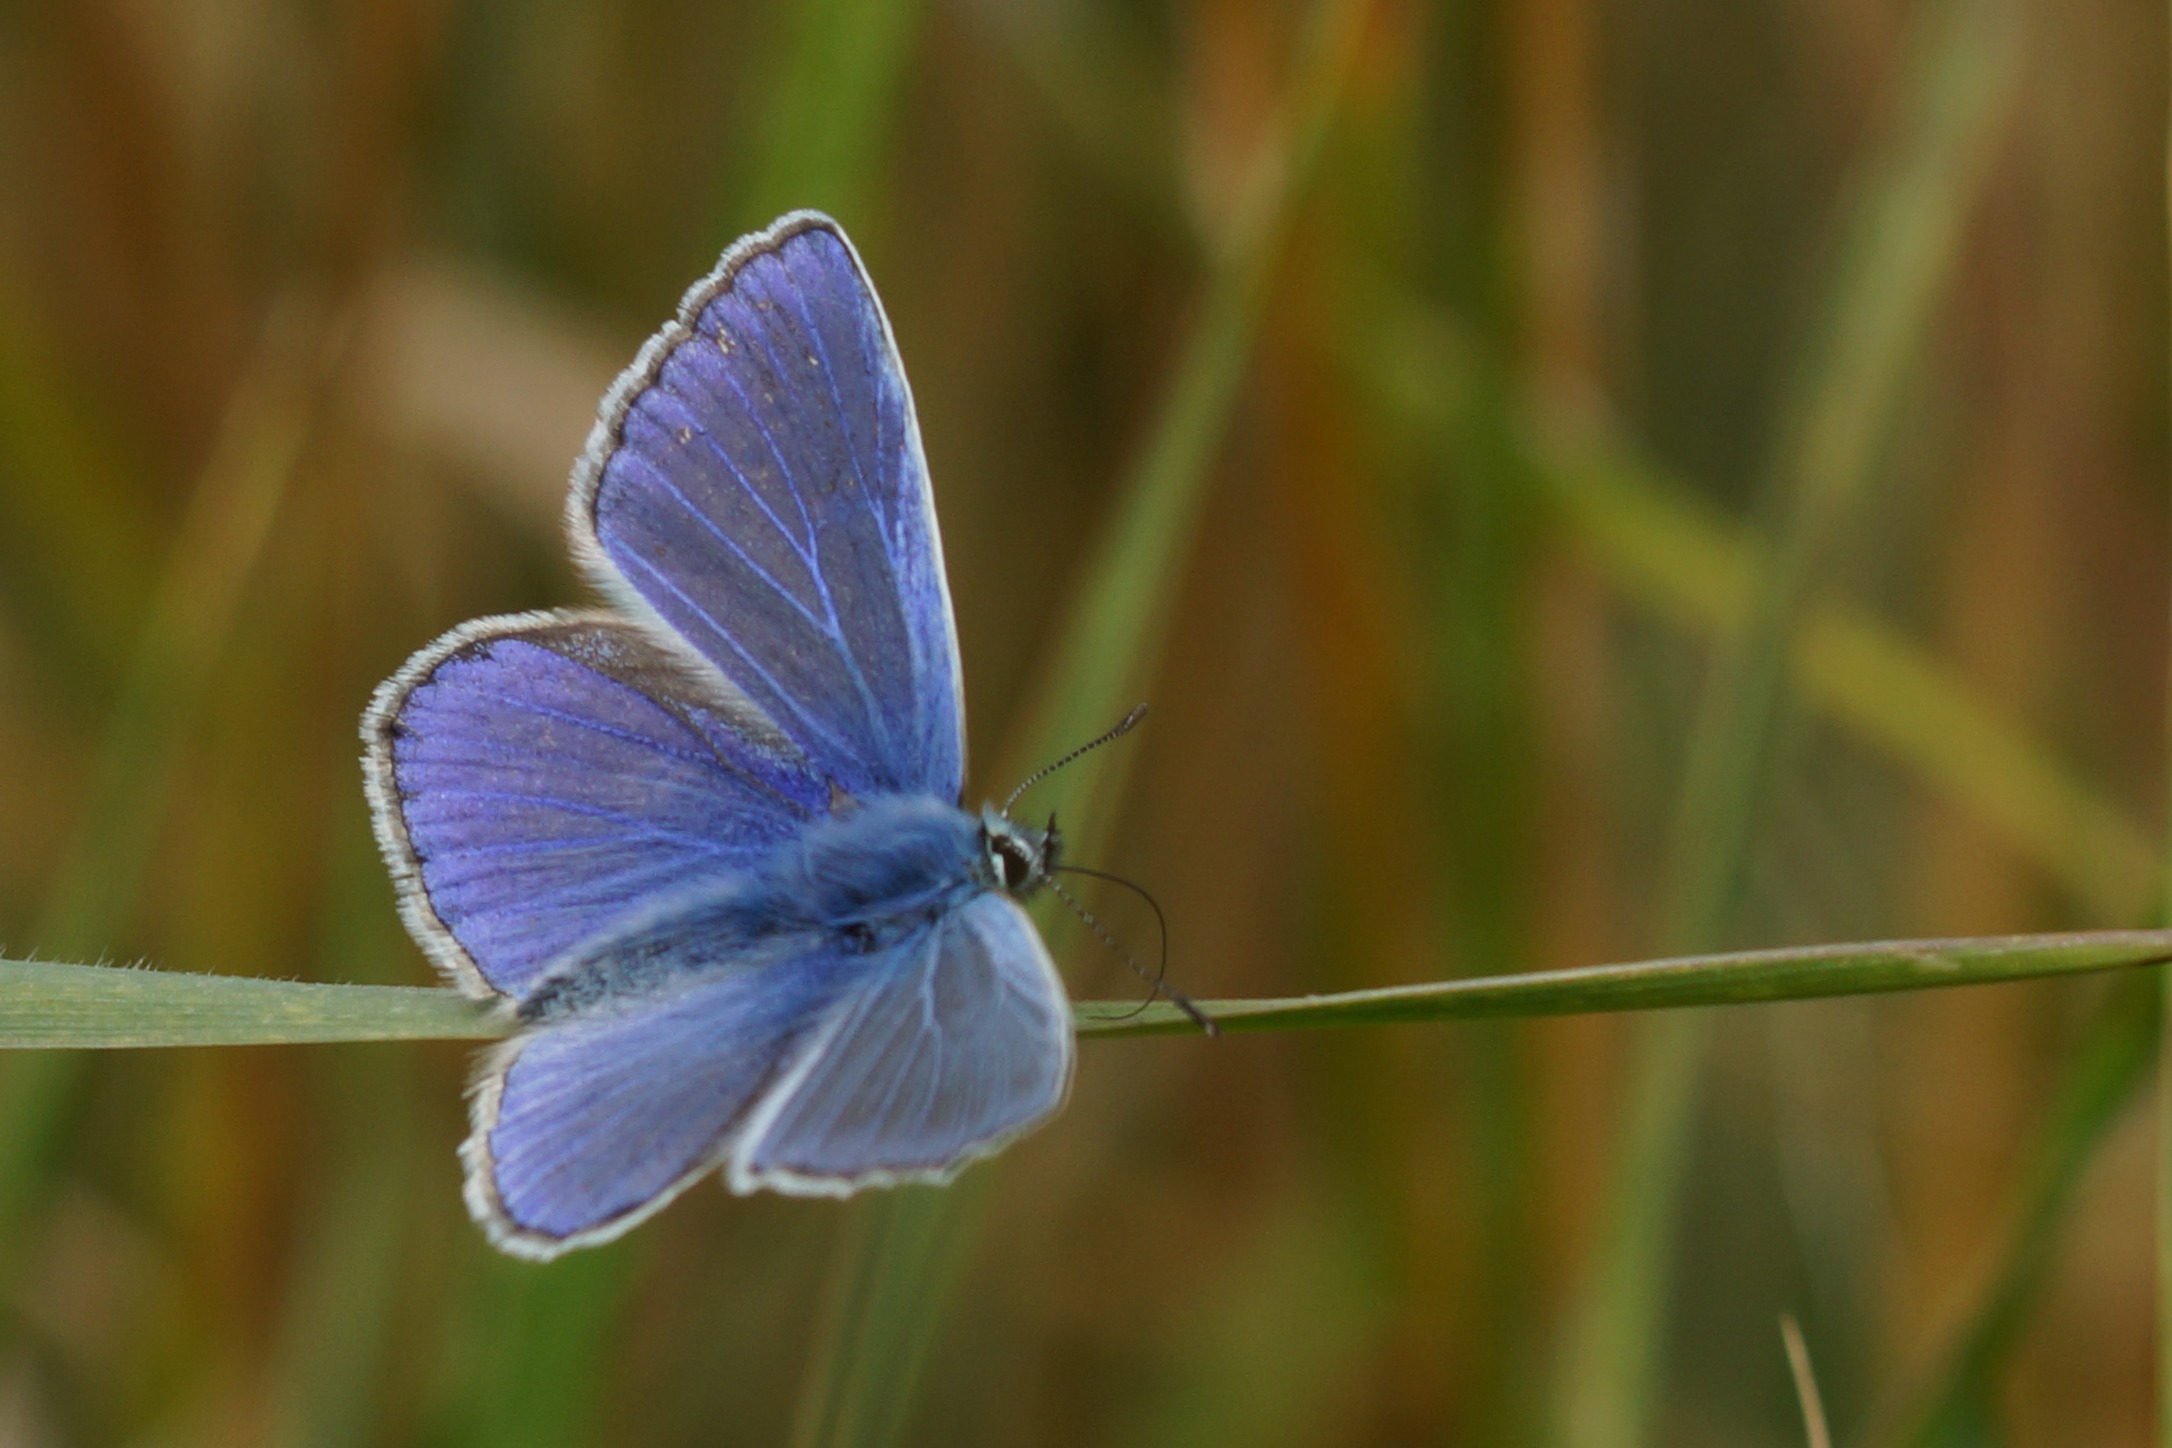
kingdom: Animalia
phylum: Arthropoda
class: Insecta
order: Lepidoptera
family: Lycaenidae
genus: Polyommatus
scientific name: Polyommatus icarus
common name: Almindelig blåfugl
